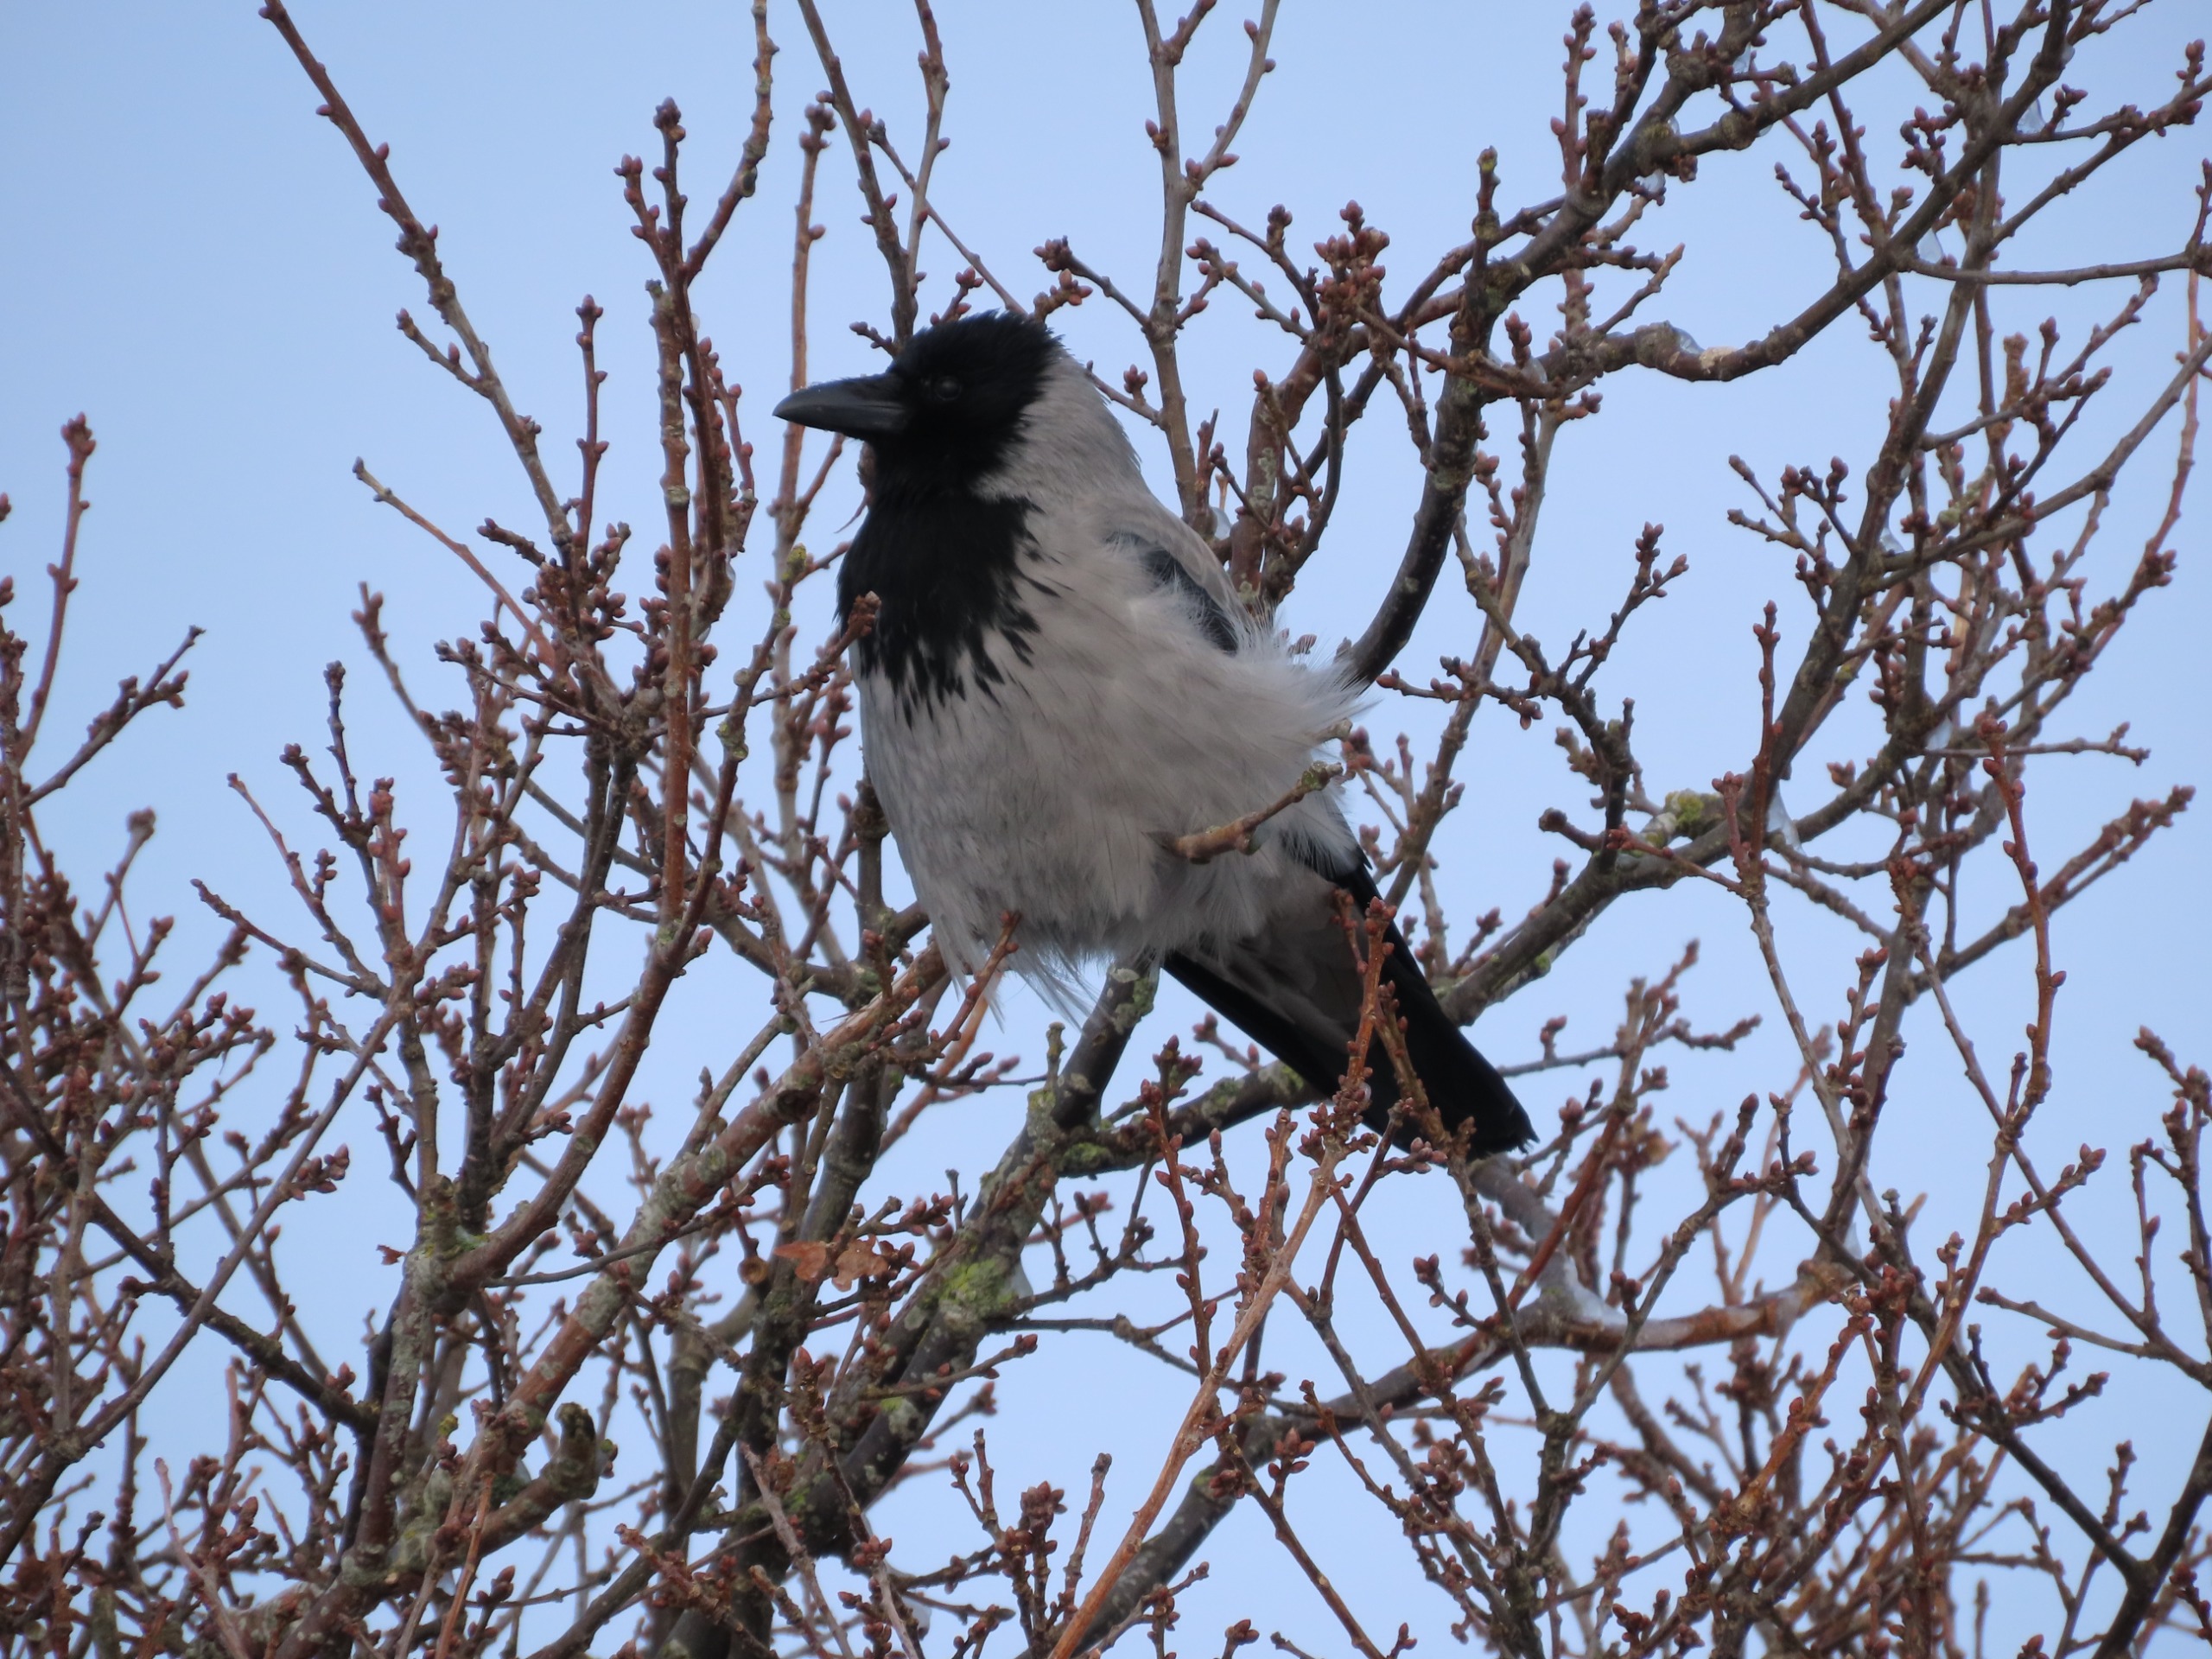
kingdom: Animalia
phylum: Chordata
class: Aves
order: Passeriformes
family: Corvidae
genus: Corvus
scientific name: Corvus cornix
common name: Gråkrage
